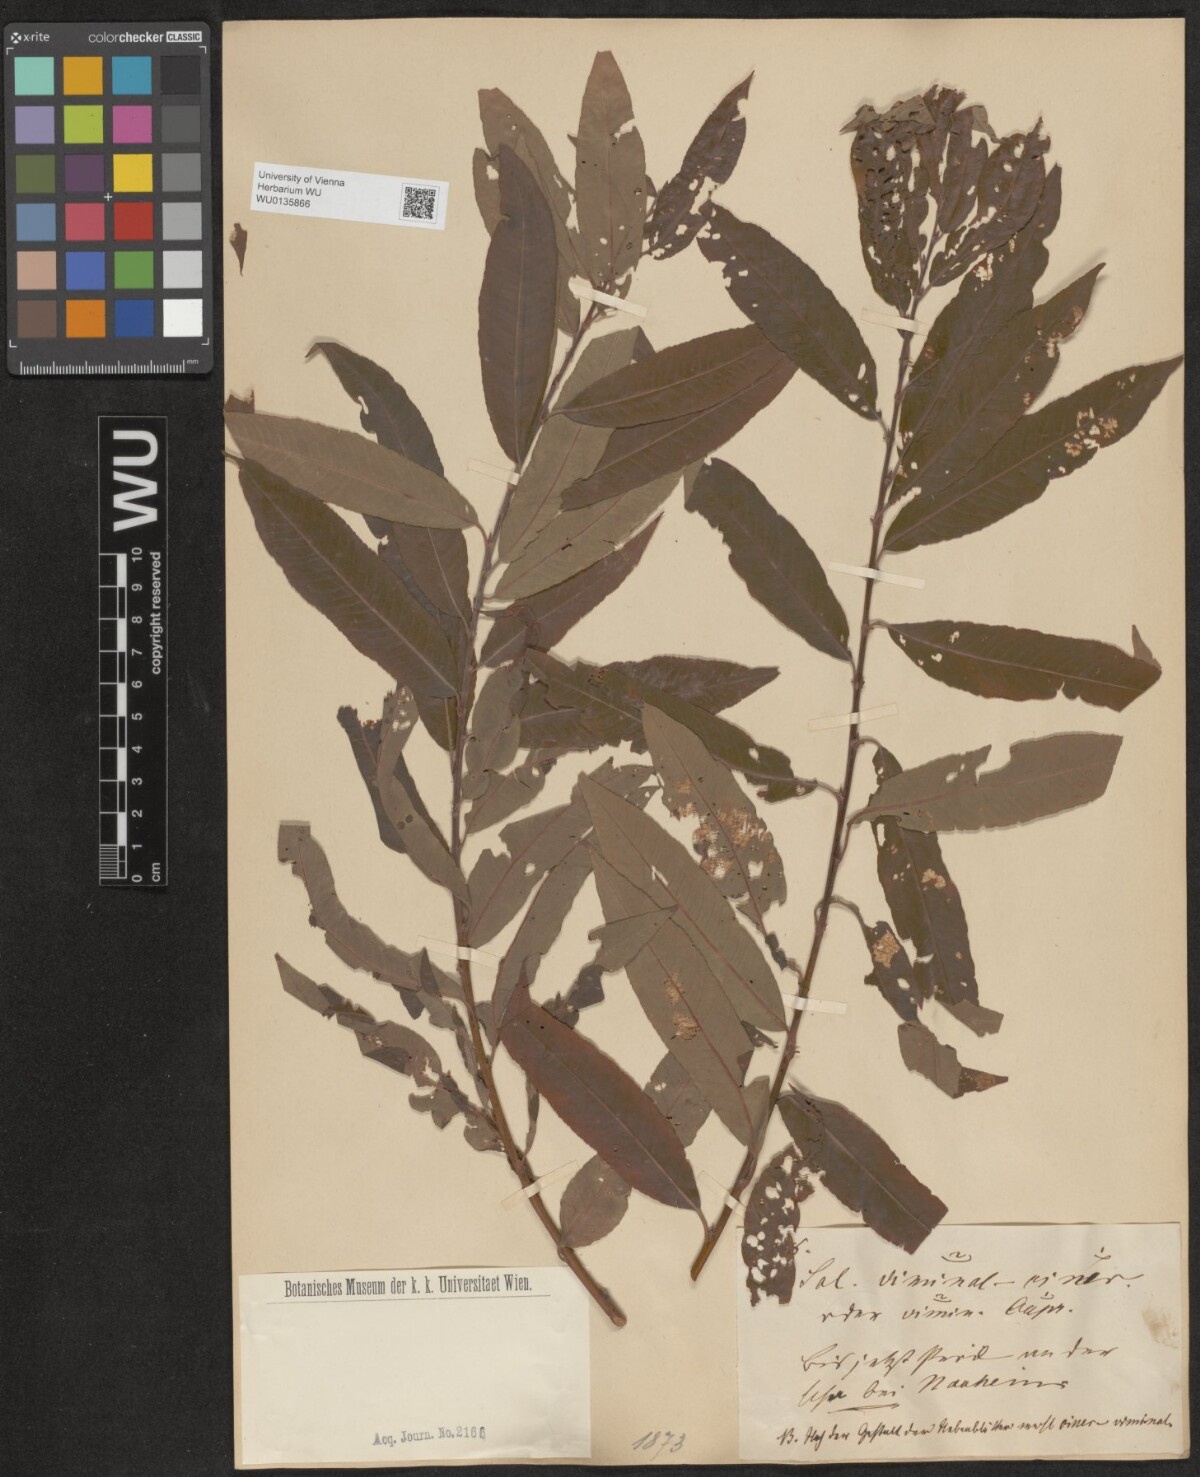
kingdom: Plantae
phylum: Tracheophyta
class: Magnoliopsida
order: Malpighiales
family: Salicaceae
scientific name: Salicaceae
